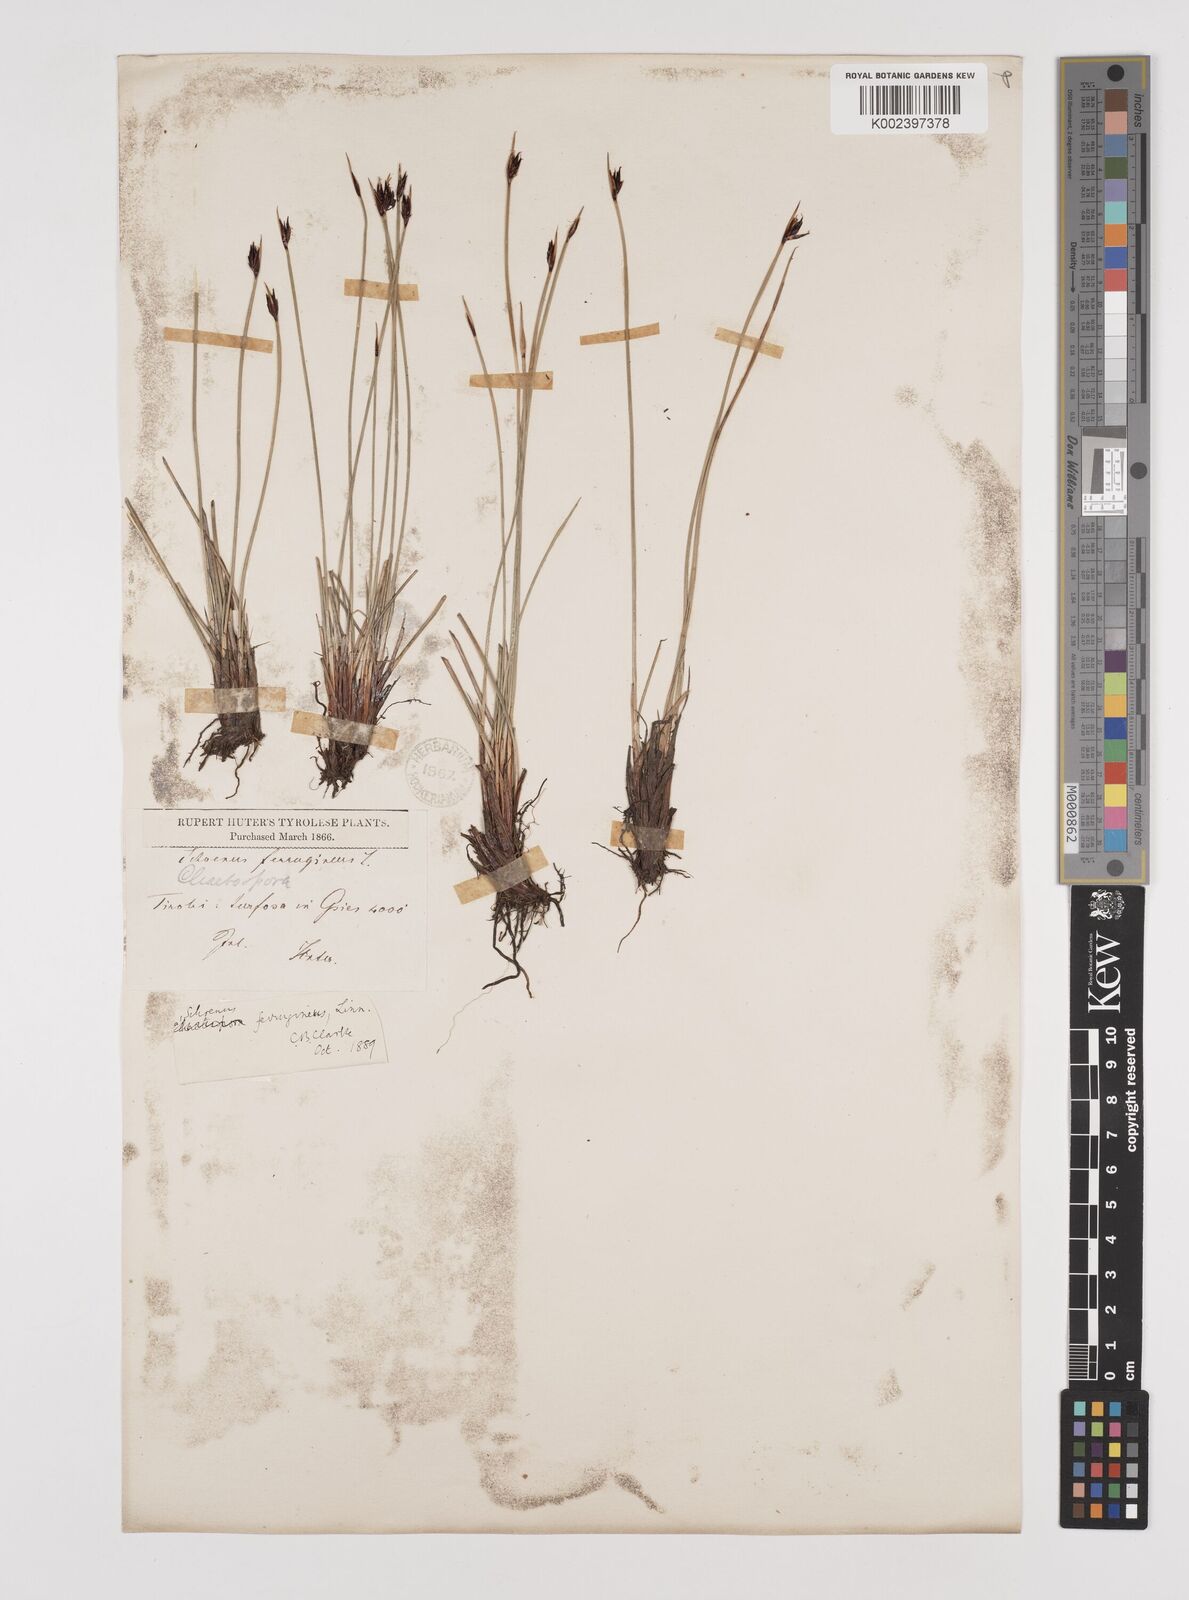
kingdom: Plantae
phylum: Tracheophyta
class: Liliopsida
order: Poales
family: Cyperaceae
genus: Schoenus
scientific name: Schoenus ferrugineus
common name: Brown bog-rush
